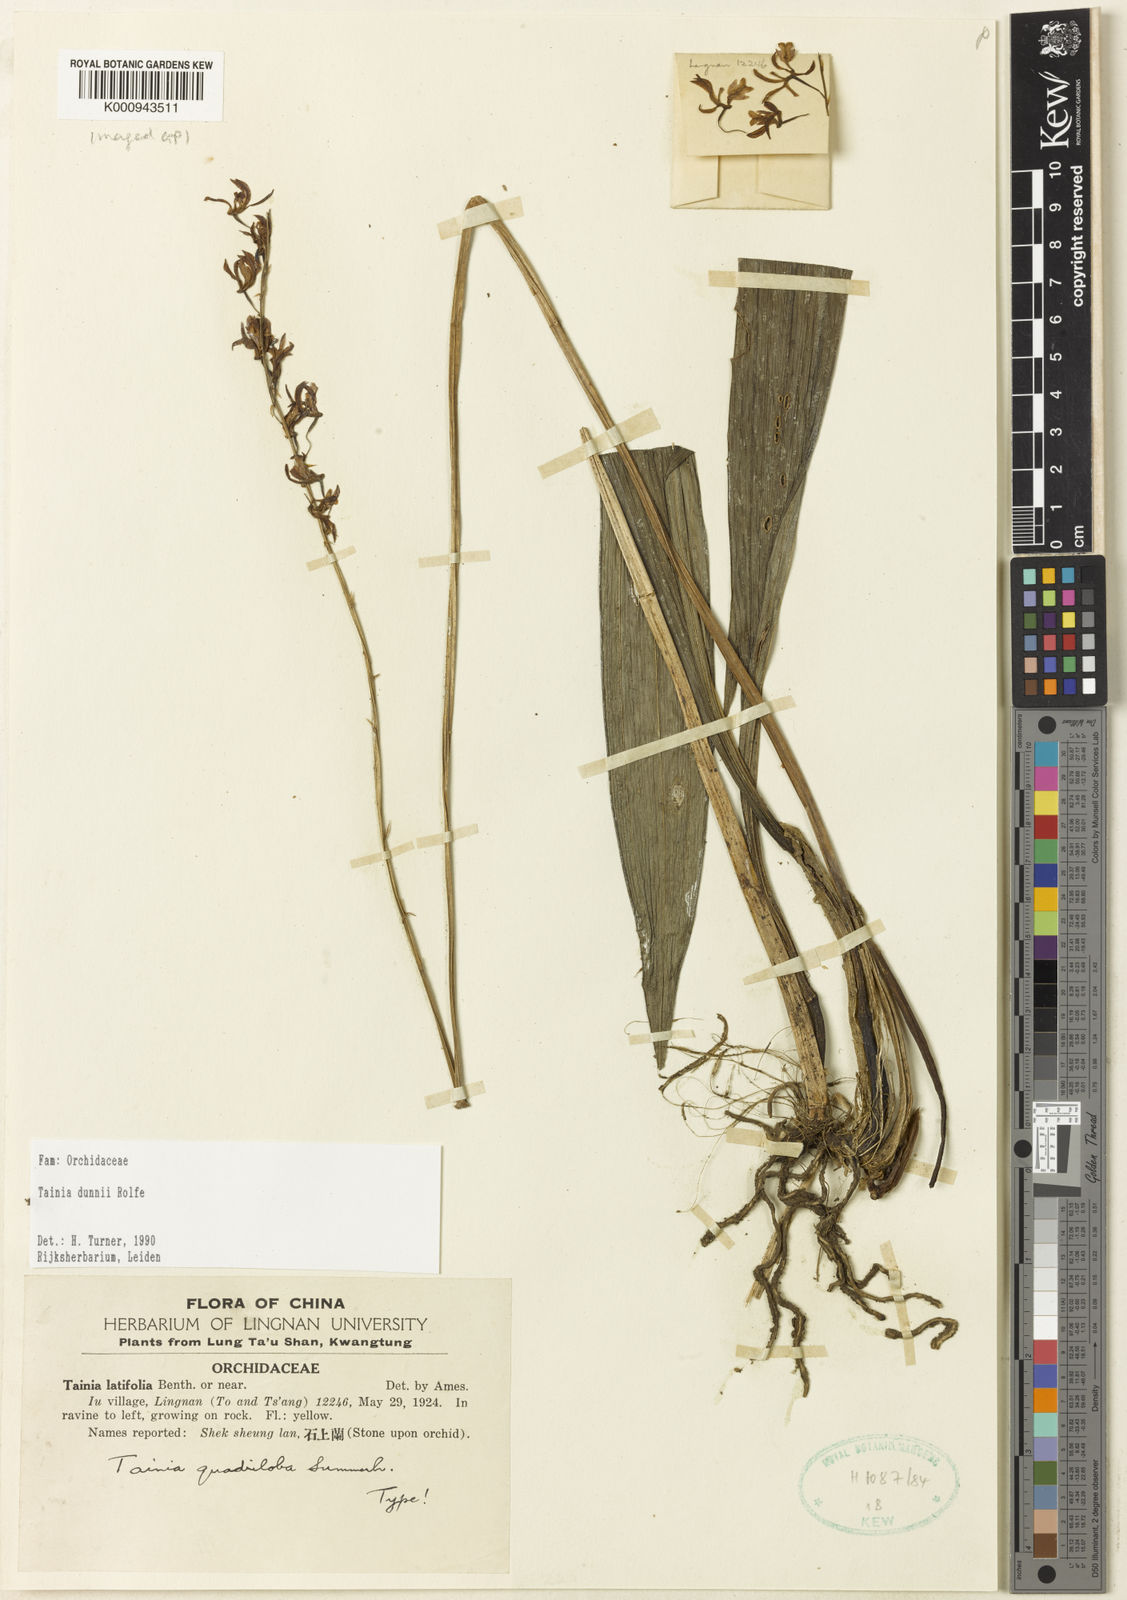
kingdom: Plantae
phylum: Tracheophyta
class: Liliopsida
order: Asparagales
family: Orchidaceae
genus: Tainia
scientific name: Tainia dunnii
